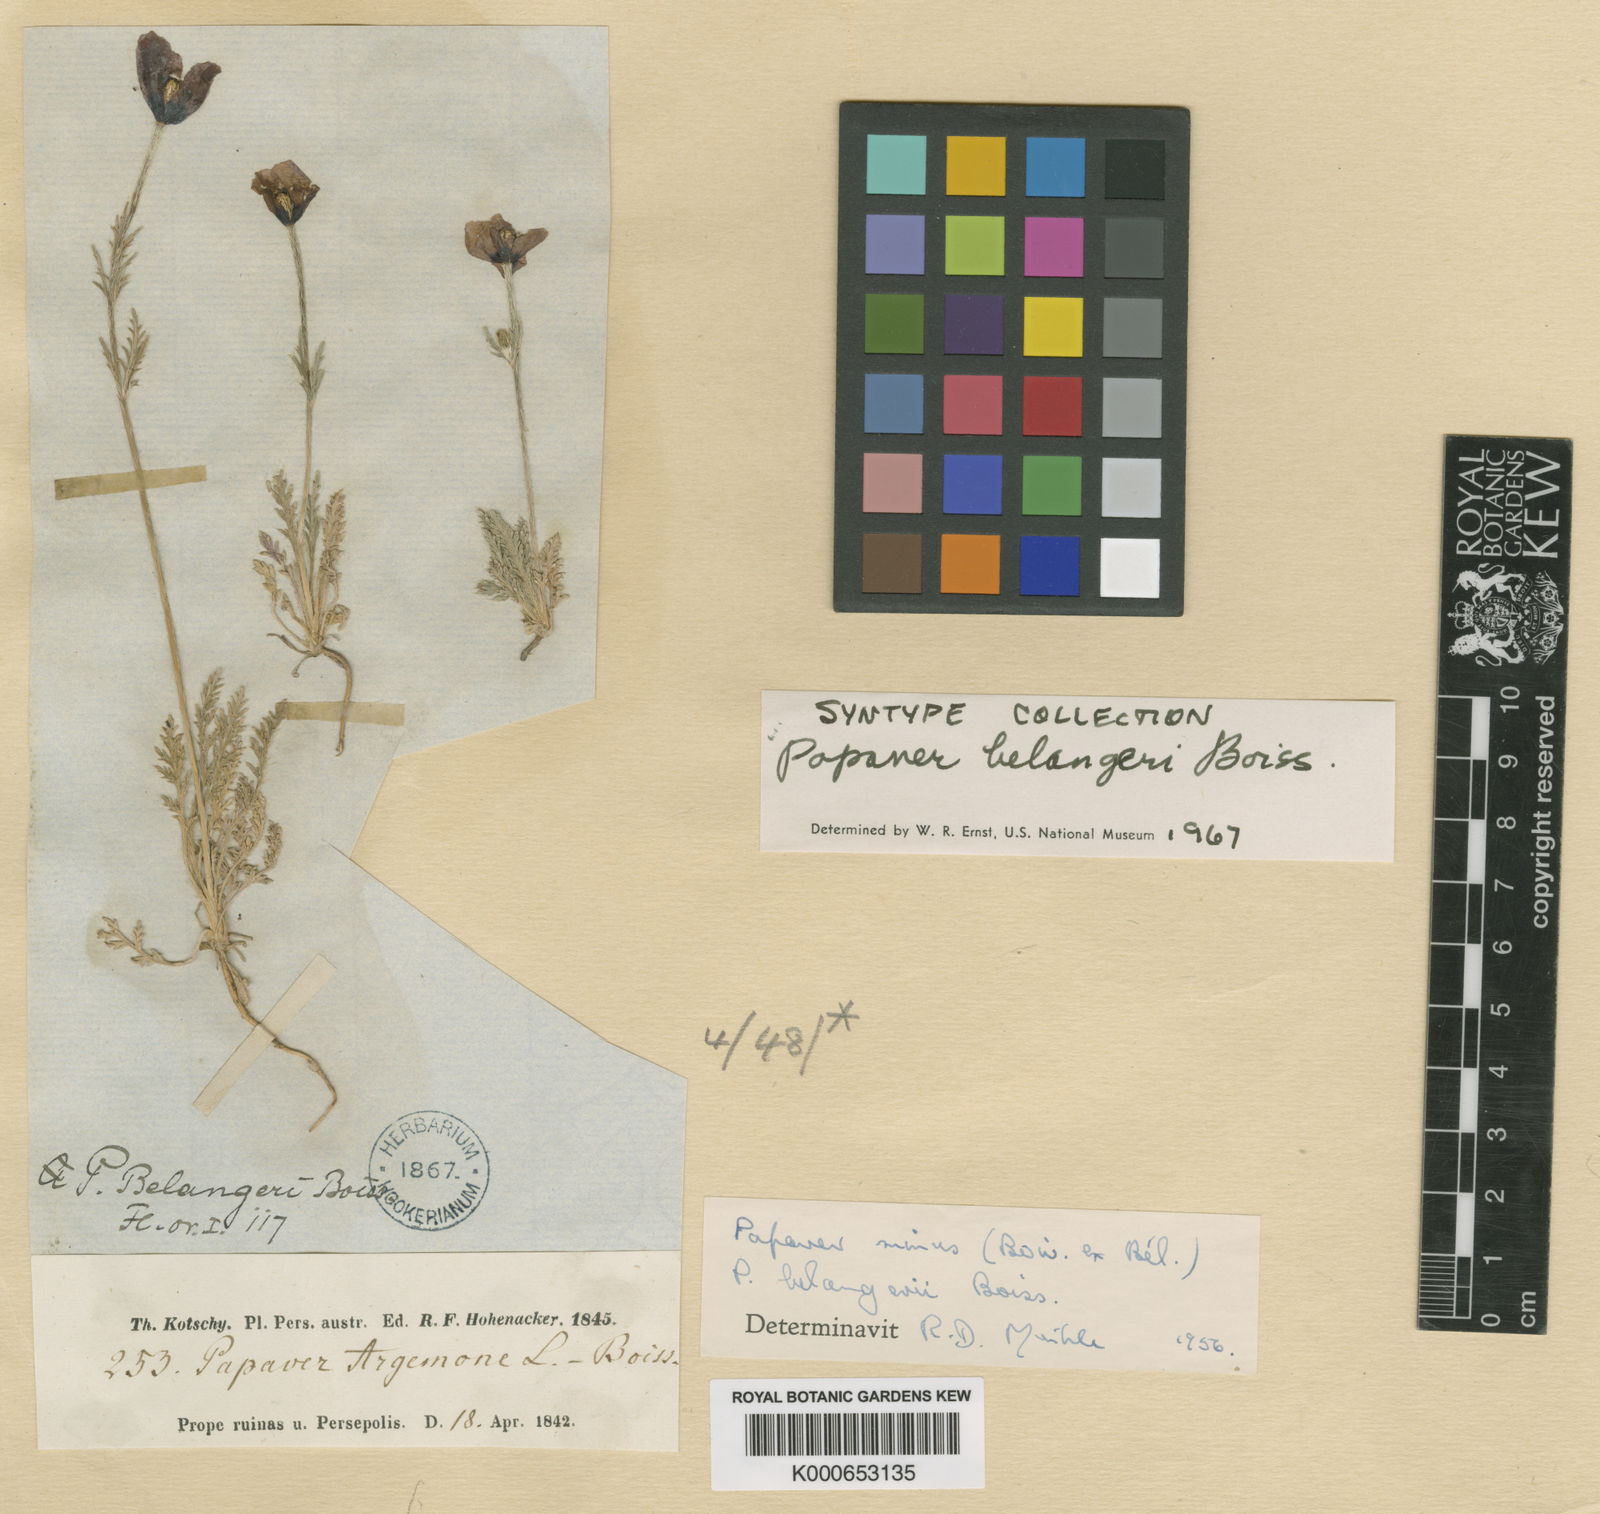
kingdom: Plantae
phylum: Tracheophyta
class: Magnoliopsida
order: Ranunculales
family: Papaveraceae
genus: Papaver
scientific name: Papaver
